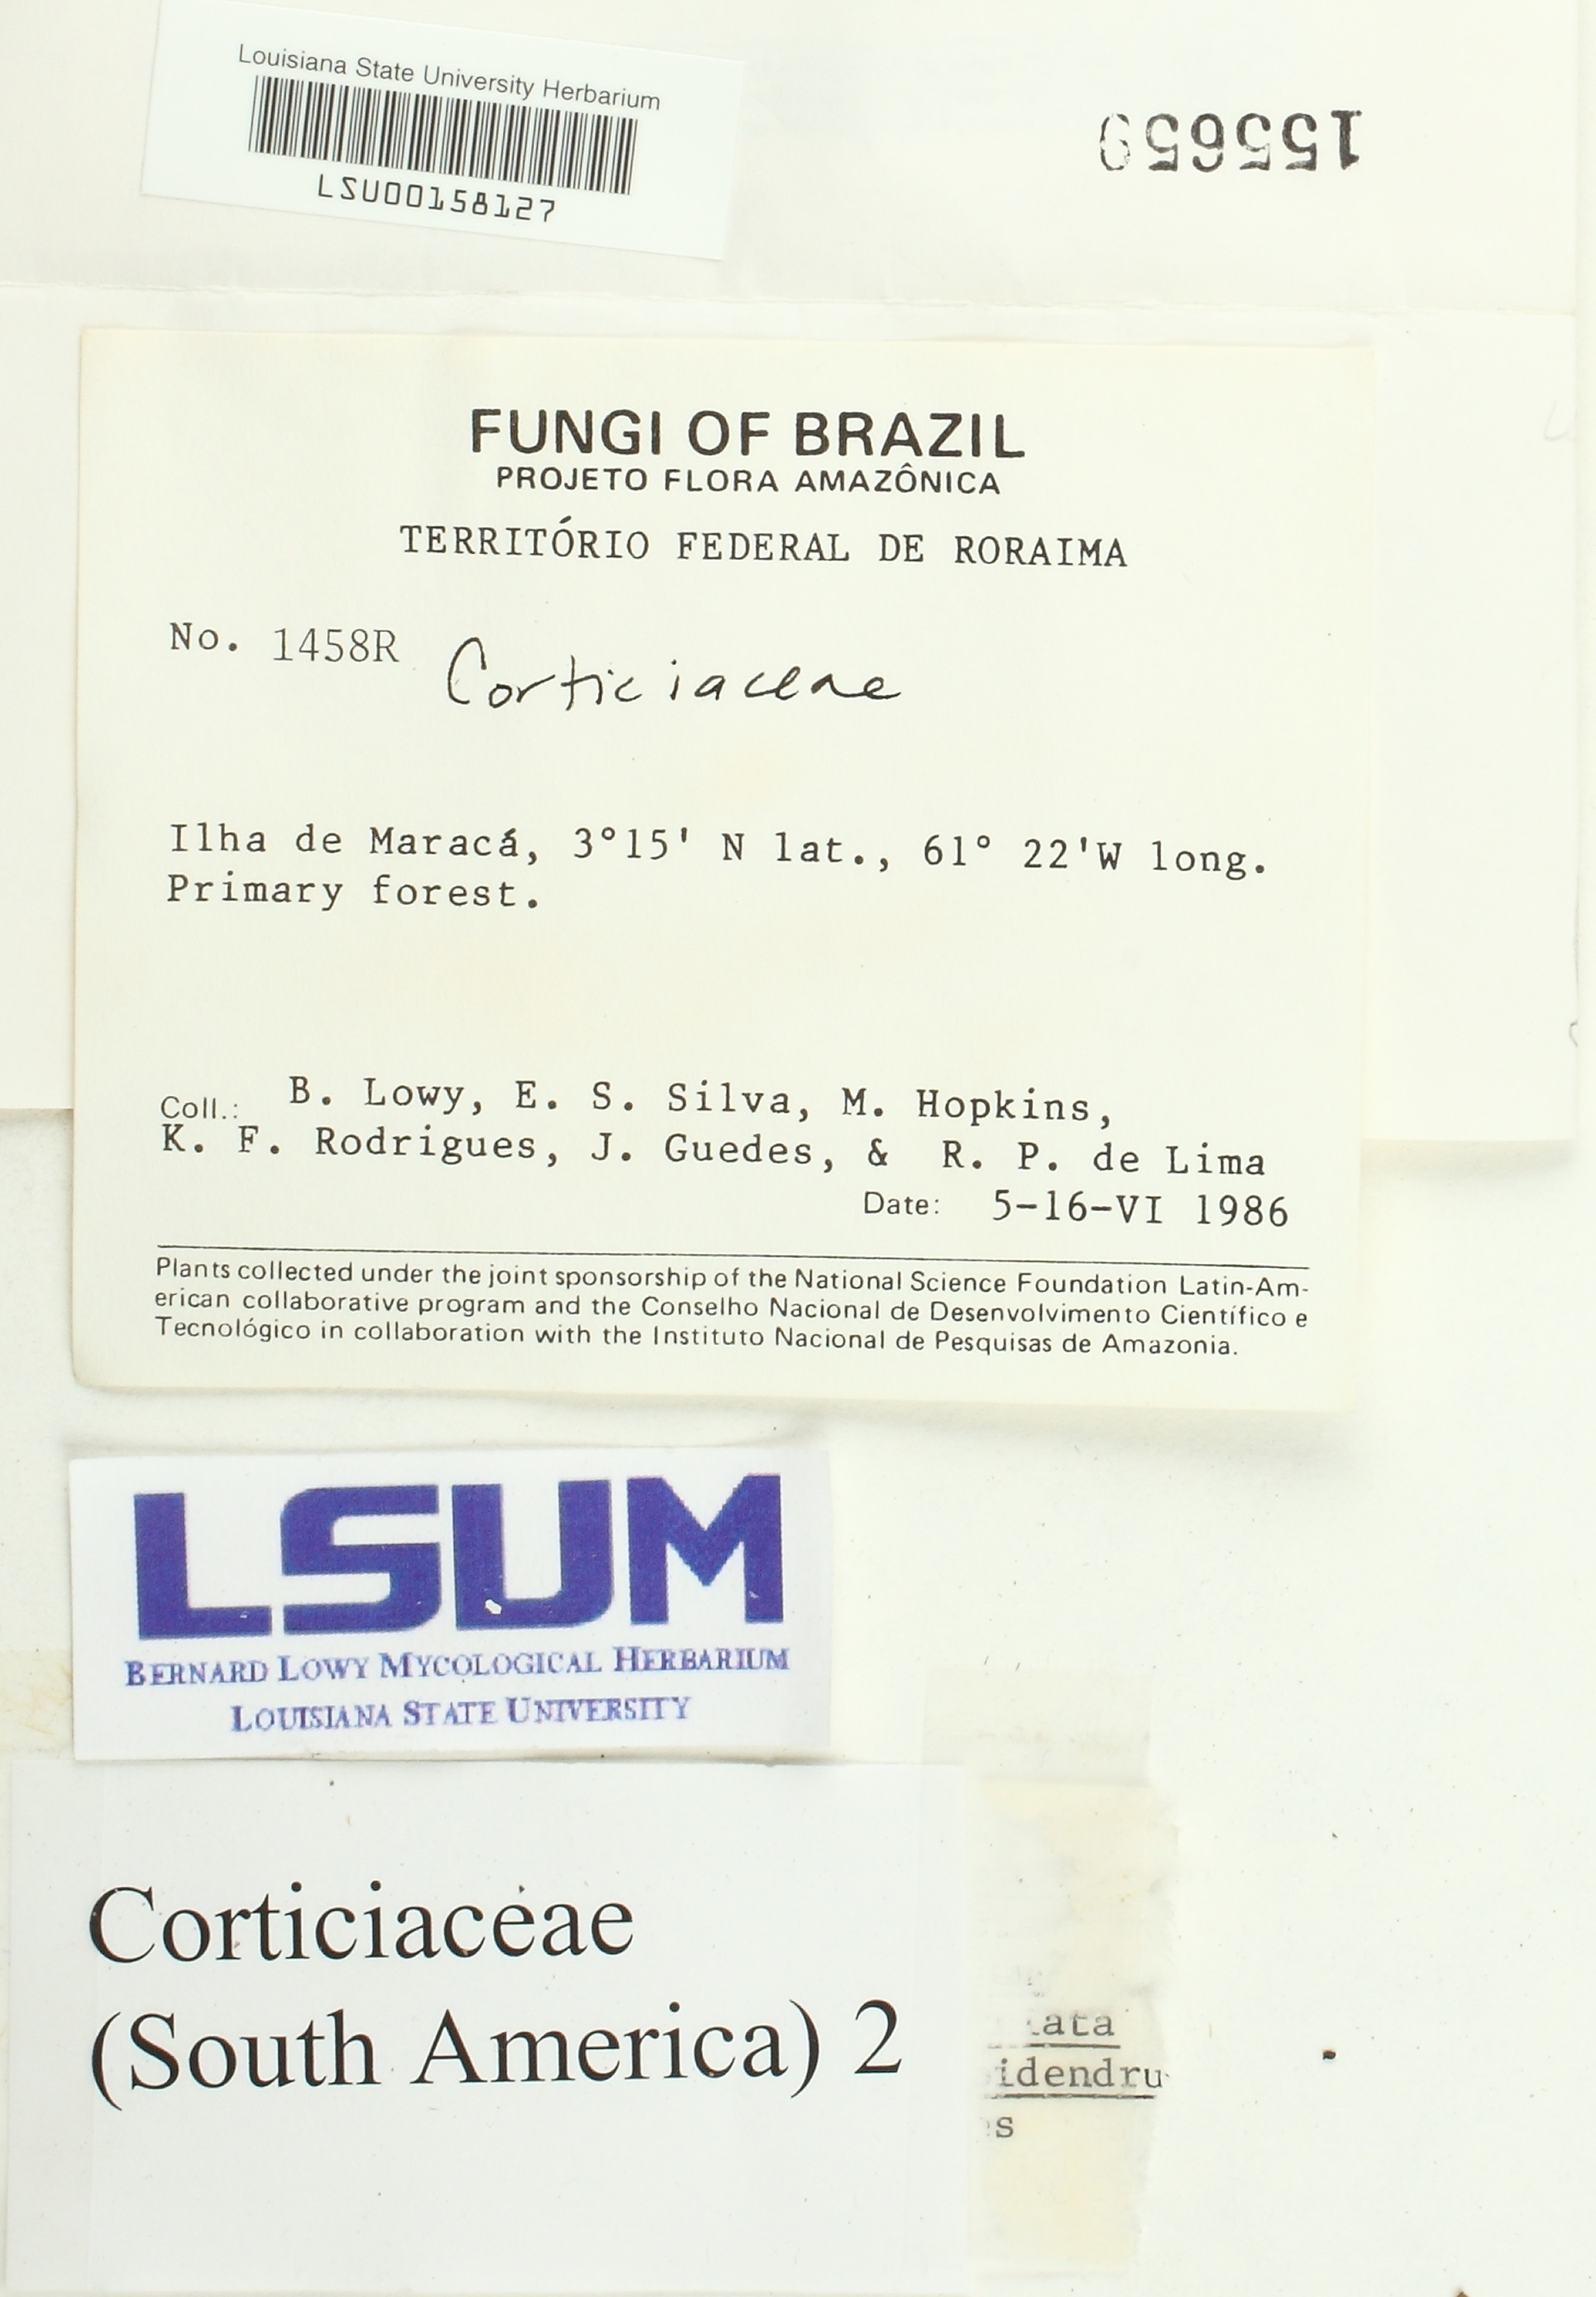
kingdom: Fungi
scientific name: Fungi
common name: Fungi
